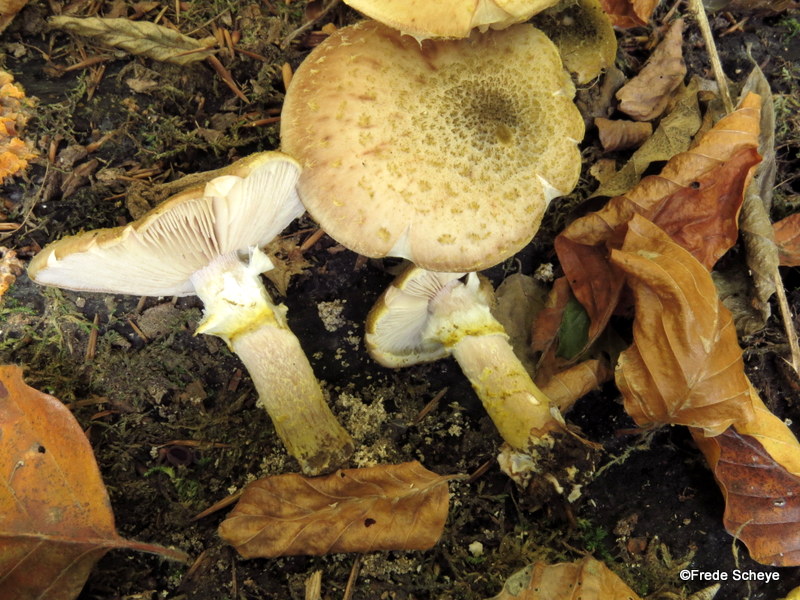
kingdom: Fungi
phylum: Basidiomycota
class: Agaricomycetes
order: Agaricales
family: Physalacriaceae
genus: Armillaria
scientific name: Armillaria lutea
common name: køllestokket honningsvamp
